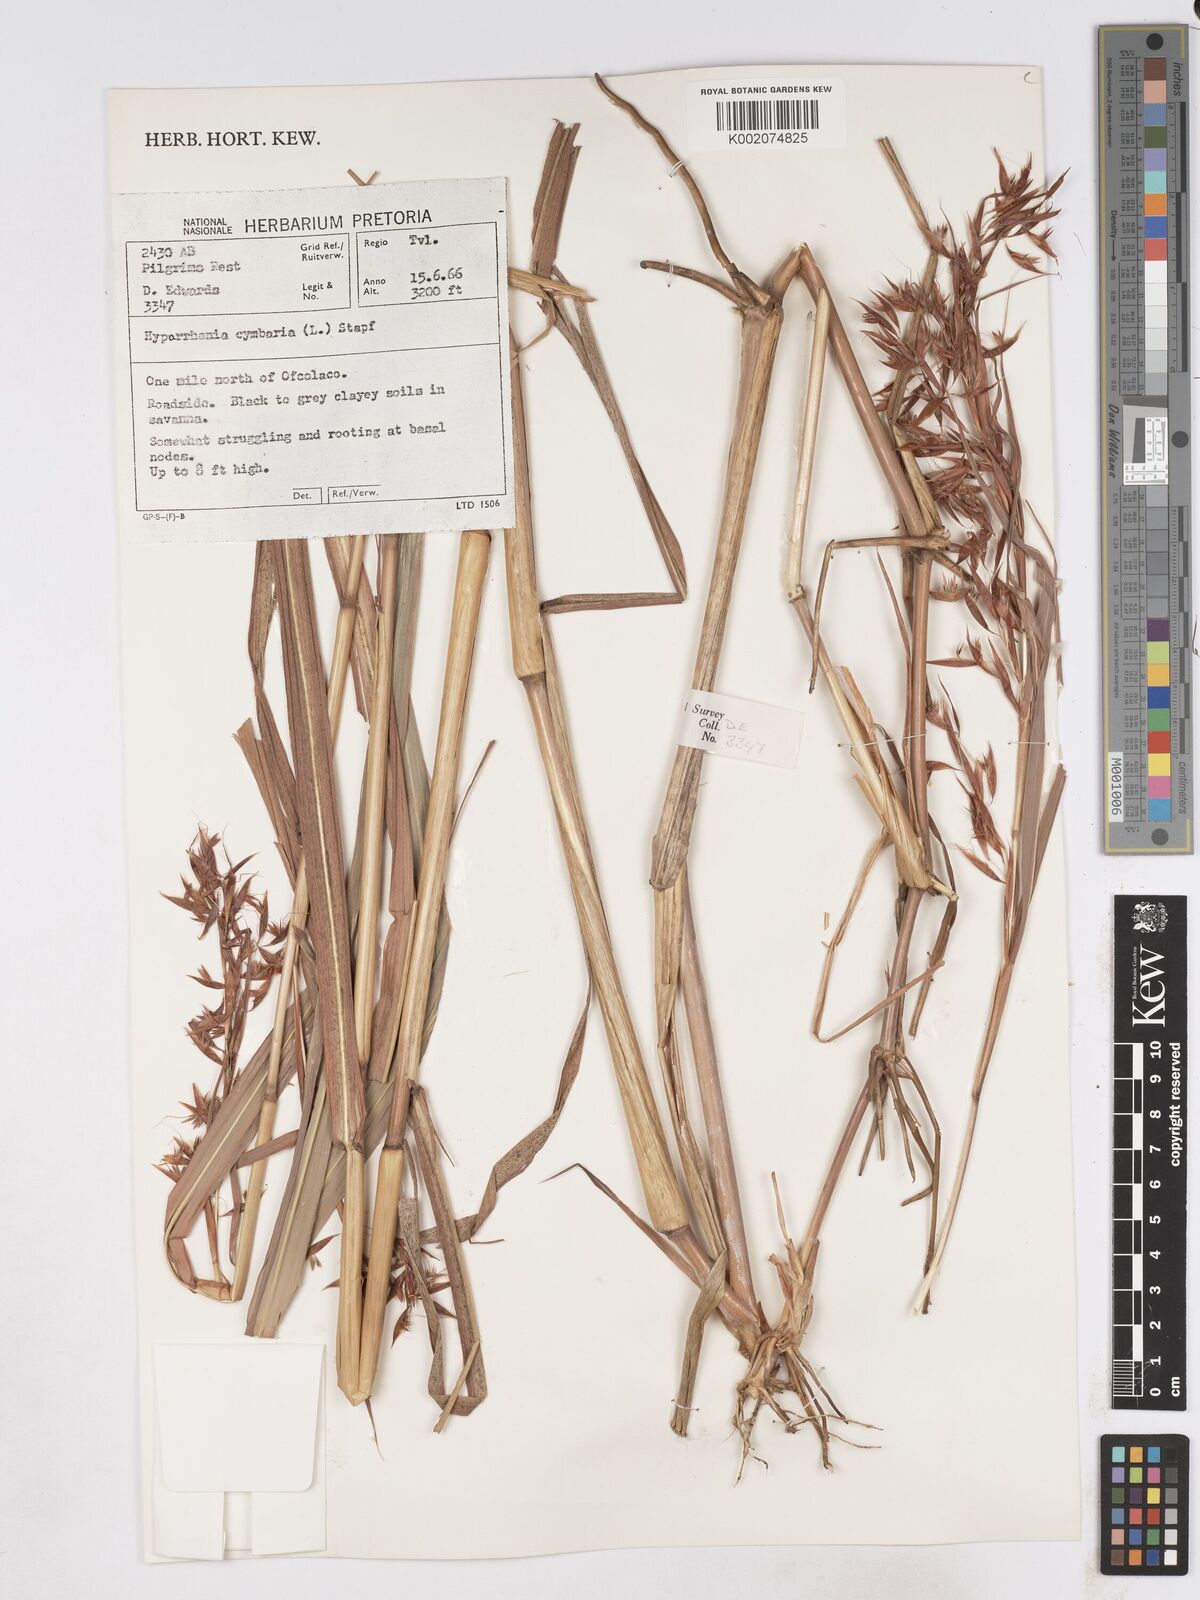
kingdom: Plantae
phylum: Tracheophyta
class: Liliopsida
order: Poales
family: Poaceae
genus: Hyparrhenia
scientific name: Hyparrhenia cymbaria
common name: Boat thatching grass
